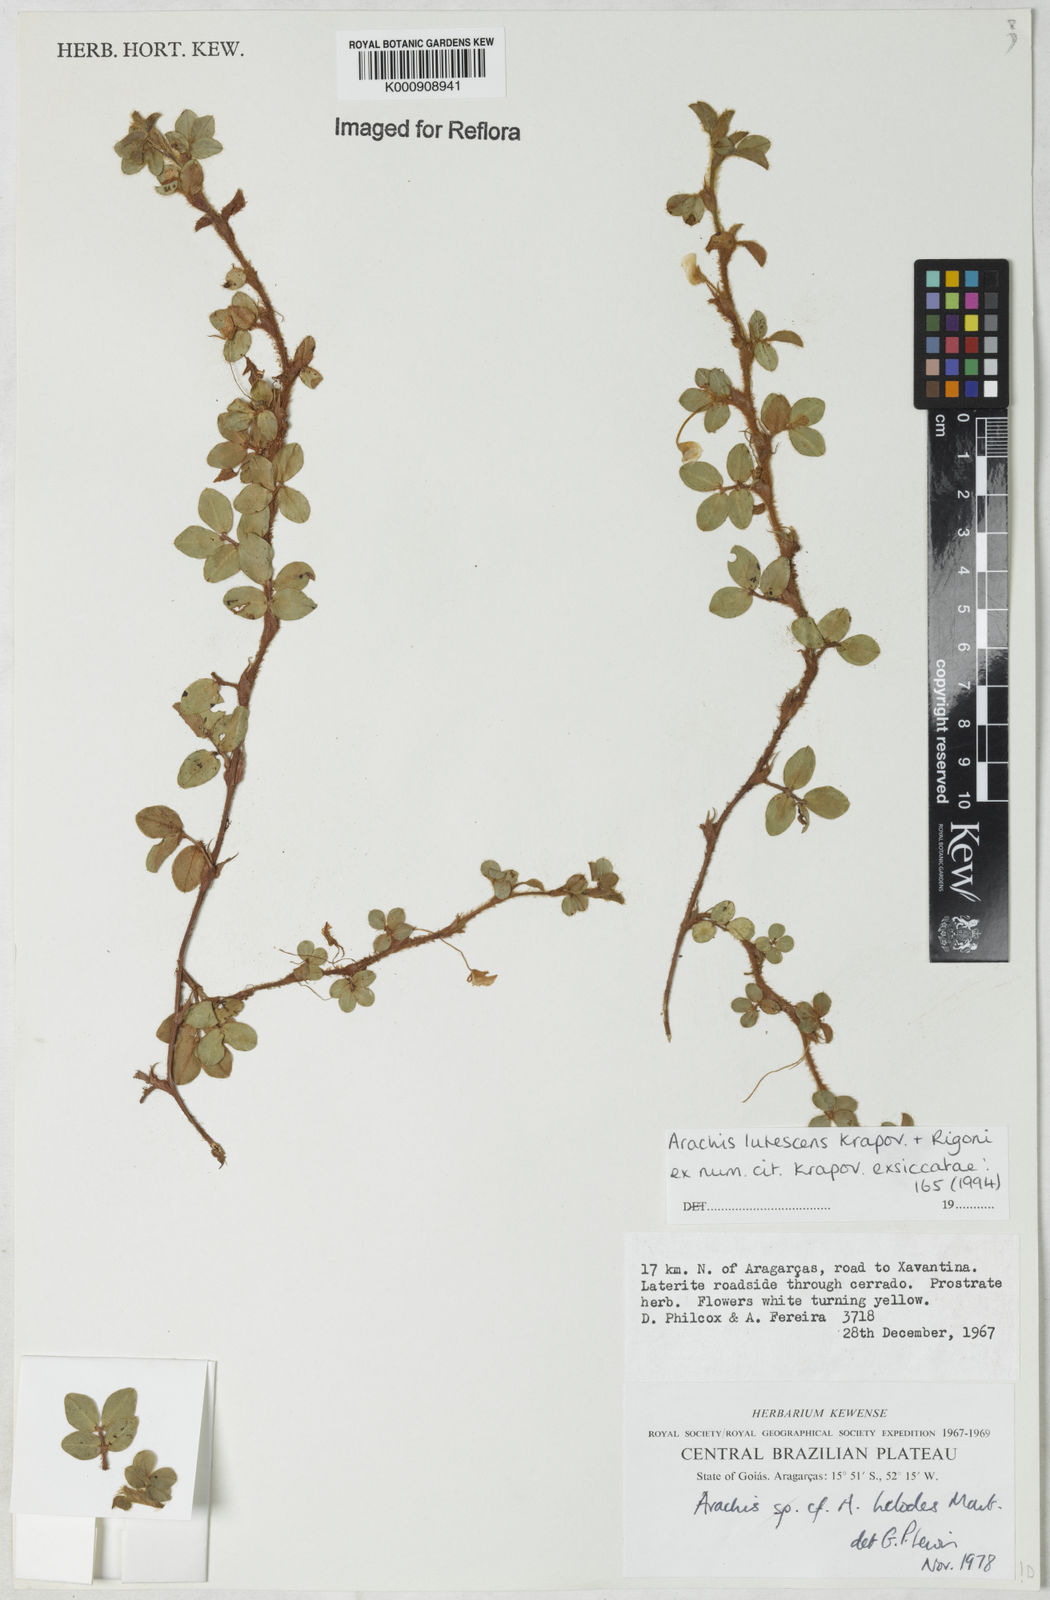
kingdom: Plantae
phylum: Tracheophyta
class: Magnoliopsida
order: Fabales
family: Fabaceae
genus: Arachis
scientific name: Arachis lutescens
